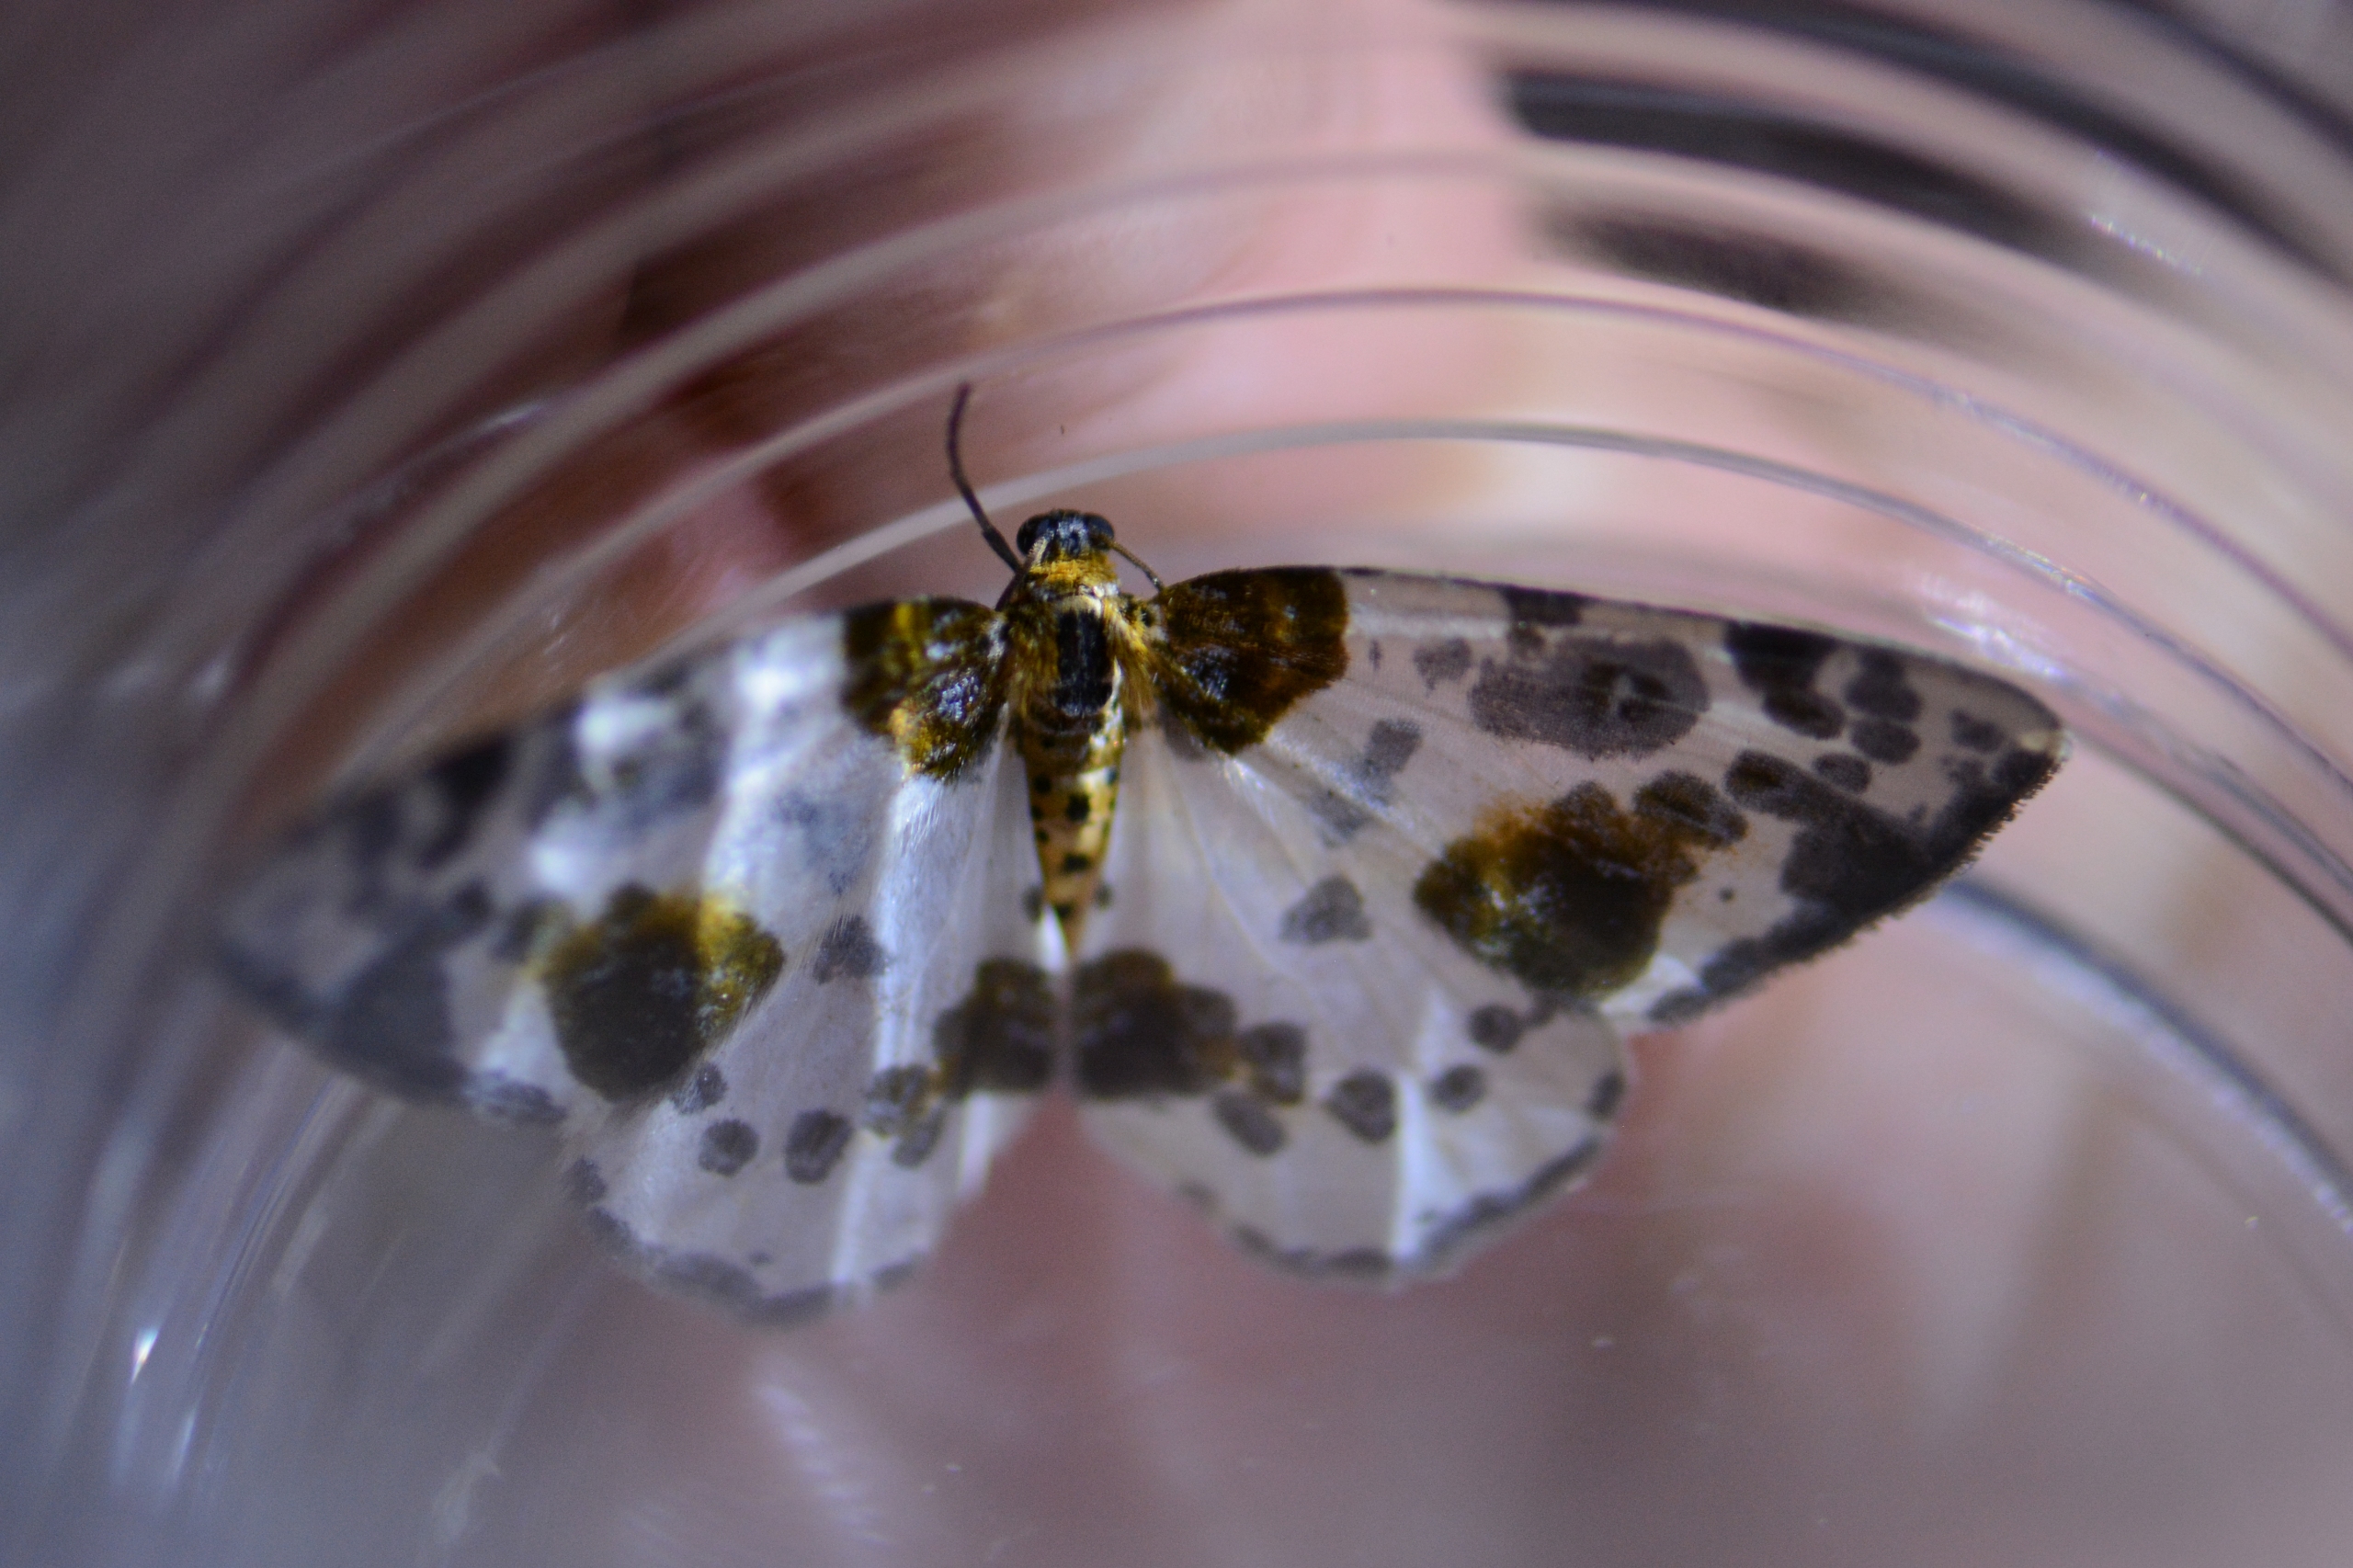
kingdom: Animalia
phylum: Arthropoda
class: Insecta
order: Lepidoptera
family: Geometridae
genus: Abraxas
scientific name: Abraxas sylvata
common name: Elmemåler
